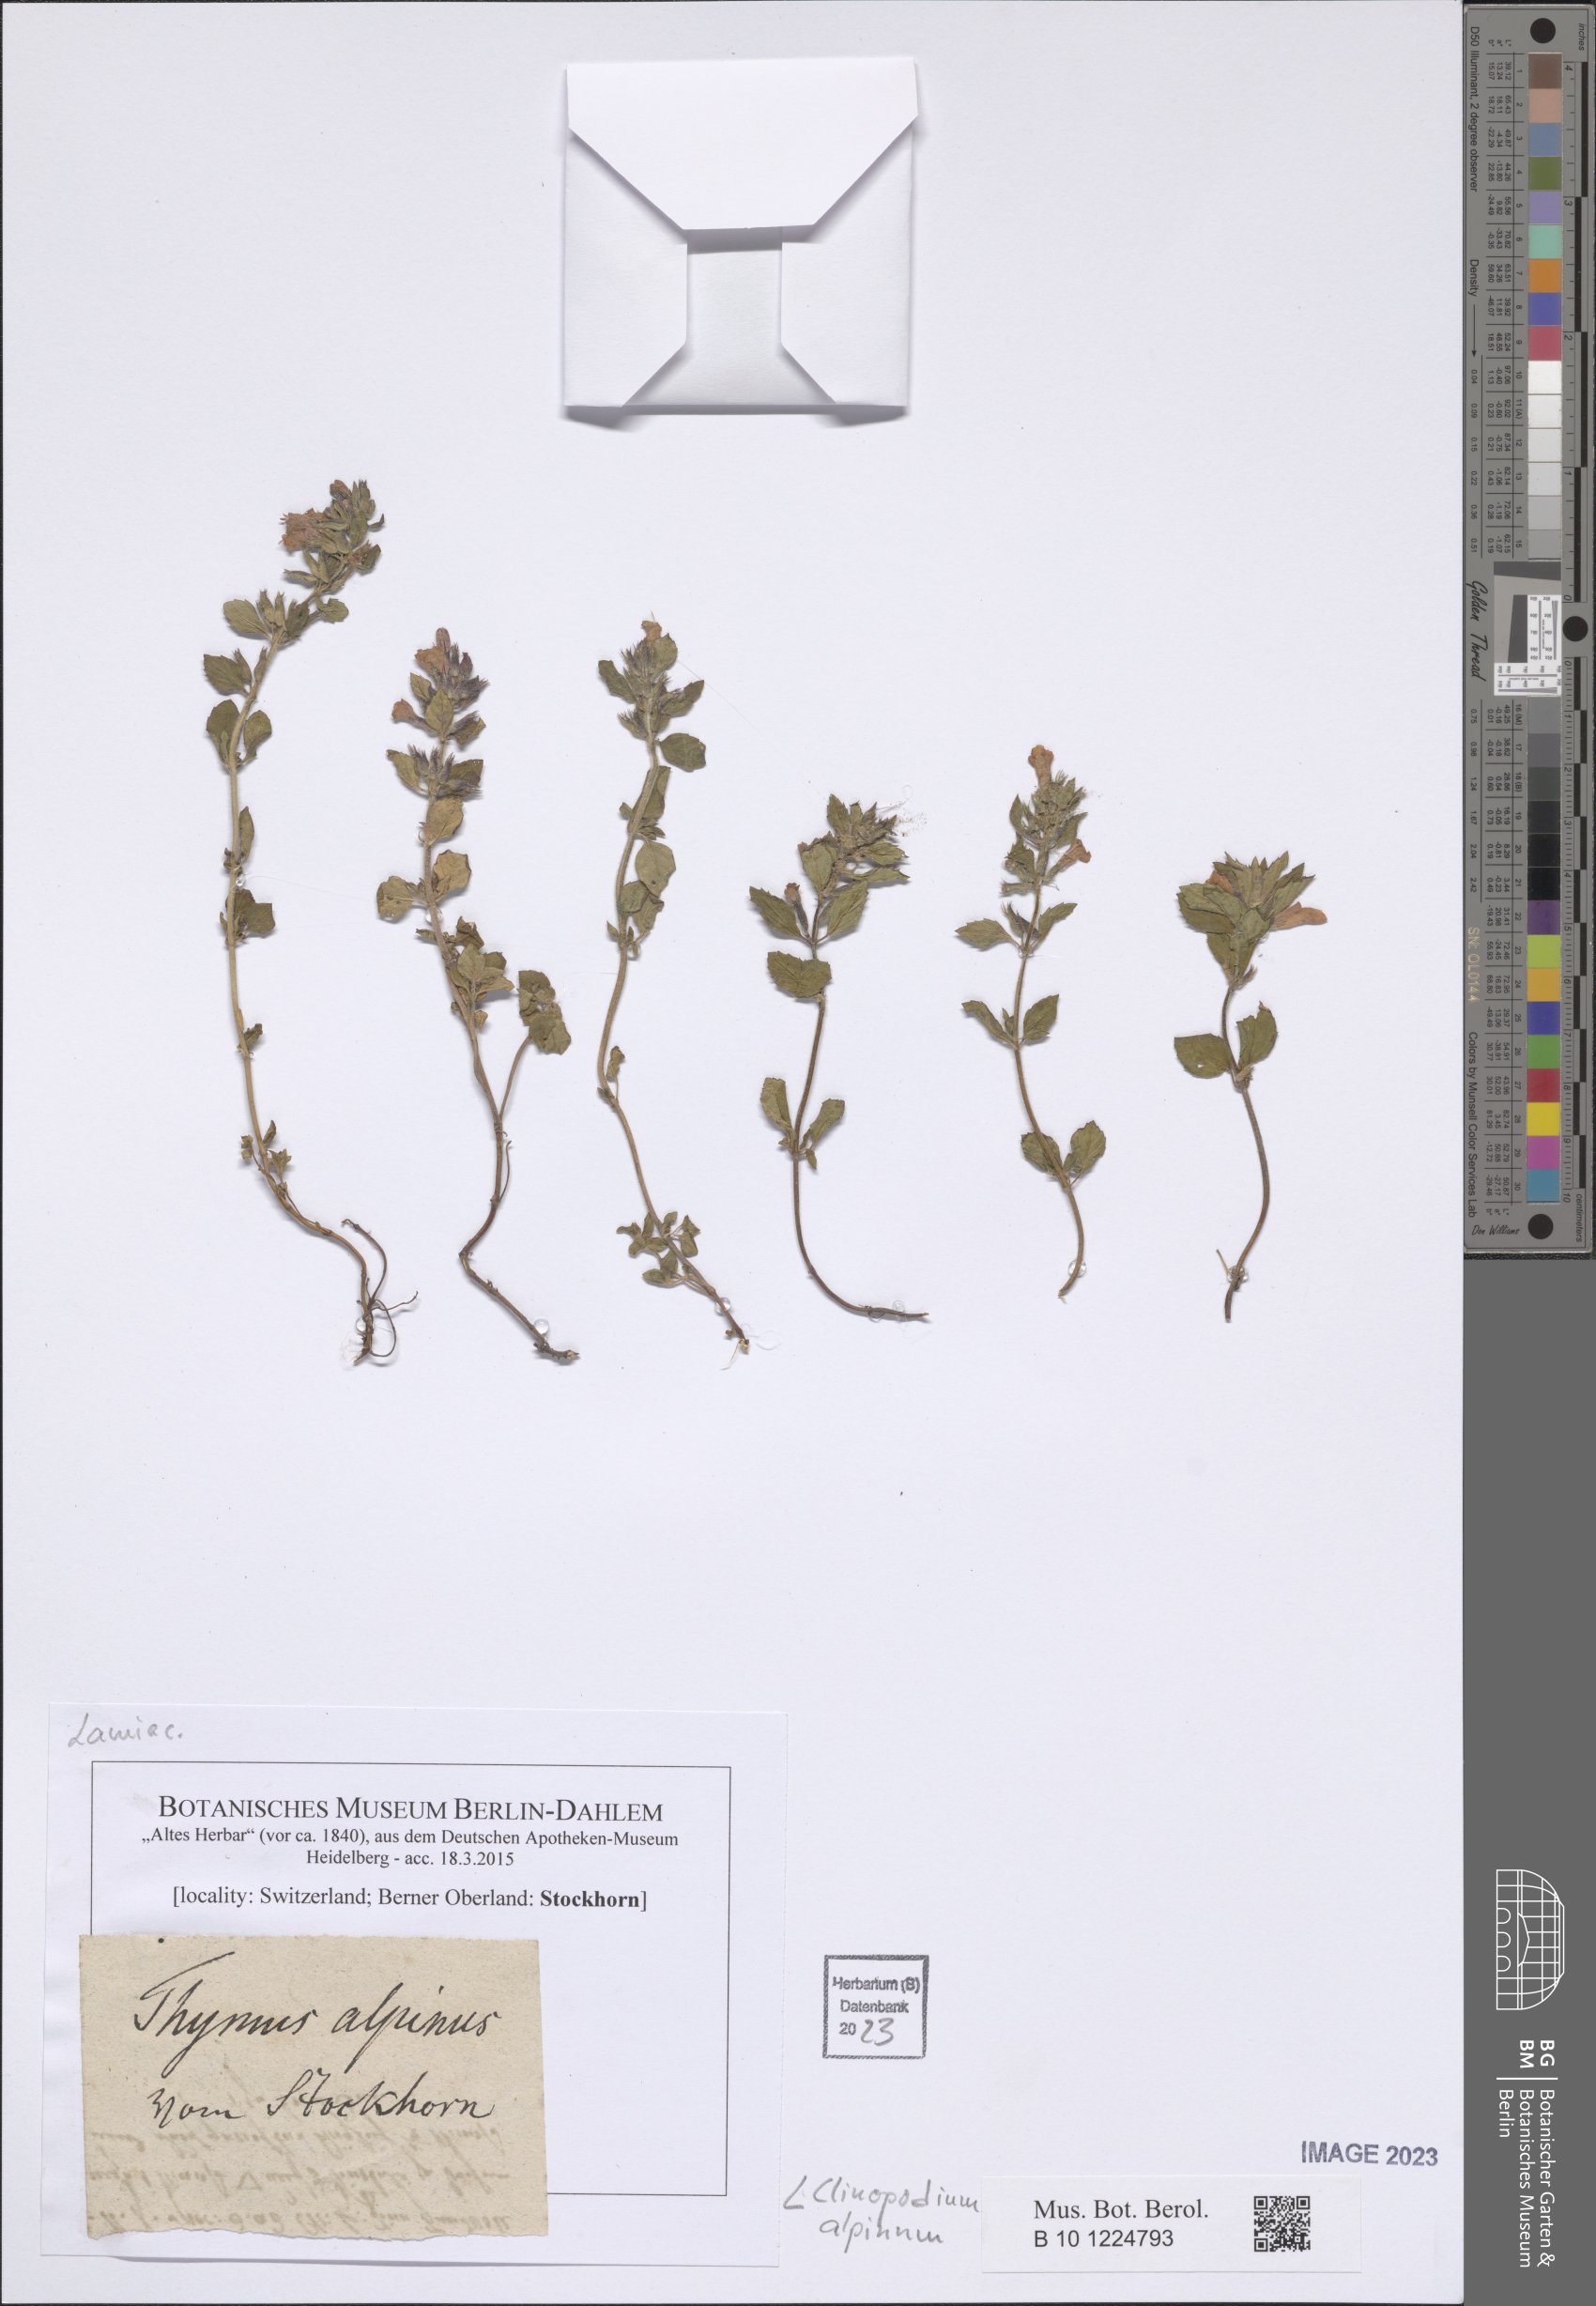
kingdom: Plantae
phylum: Tracheophyta
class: Magnoliopsida
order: Lamiales
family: Lamiaceae
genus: Clinopodium
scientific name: Clinopodium alpinum
